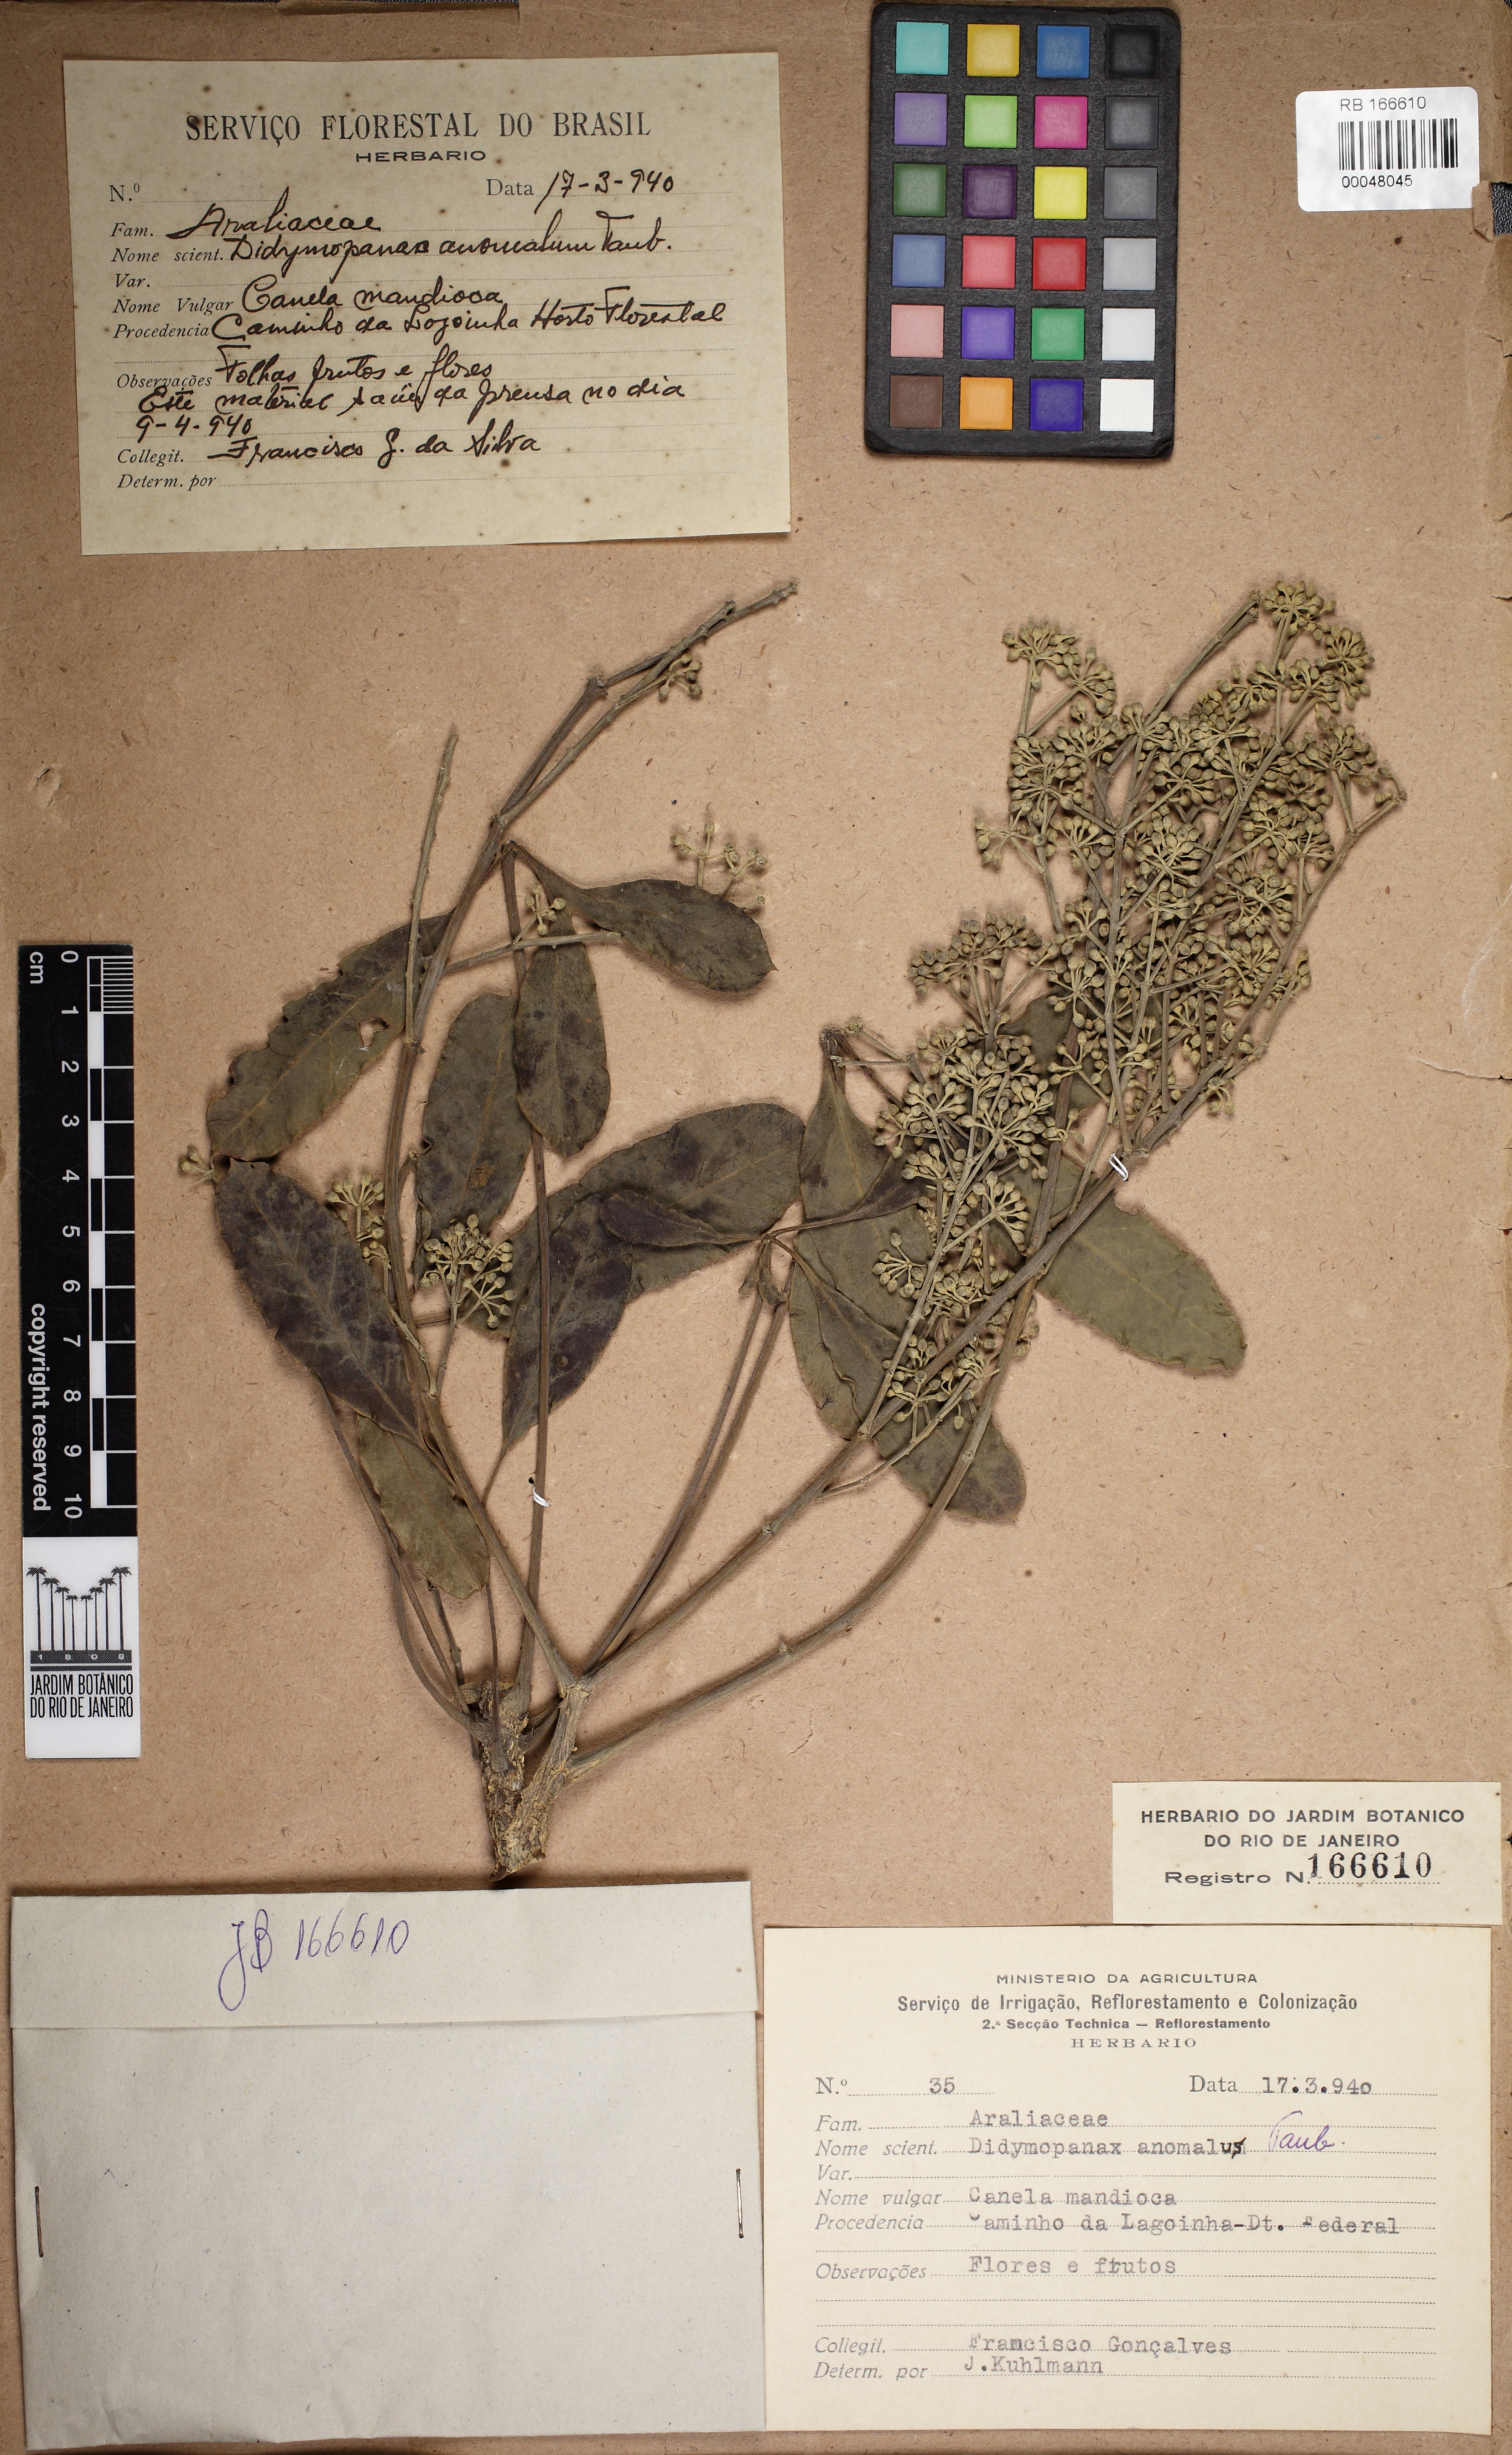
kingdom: Plantae
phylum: Tracheophyta
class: Magnoliopsida
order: Apiales
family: Araliaceae
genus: Didymopanax
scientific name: Didymopanax angustissimus
